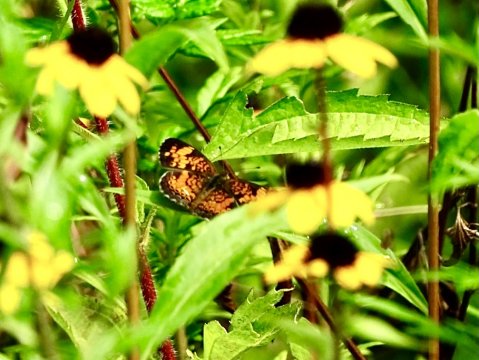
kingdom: Animalia
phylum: Arthropoda
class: Insecta
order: Lepidoptera
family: Nymphalidae
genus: Phyciodes
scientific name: Phyciodes tharos
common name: Pearl Crescent
